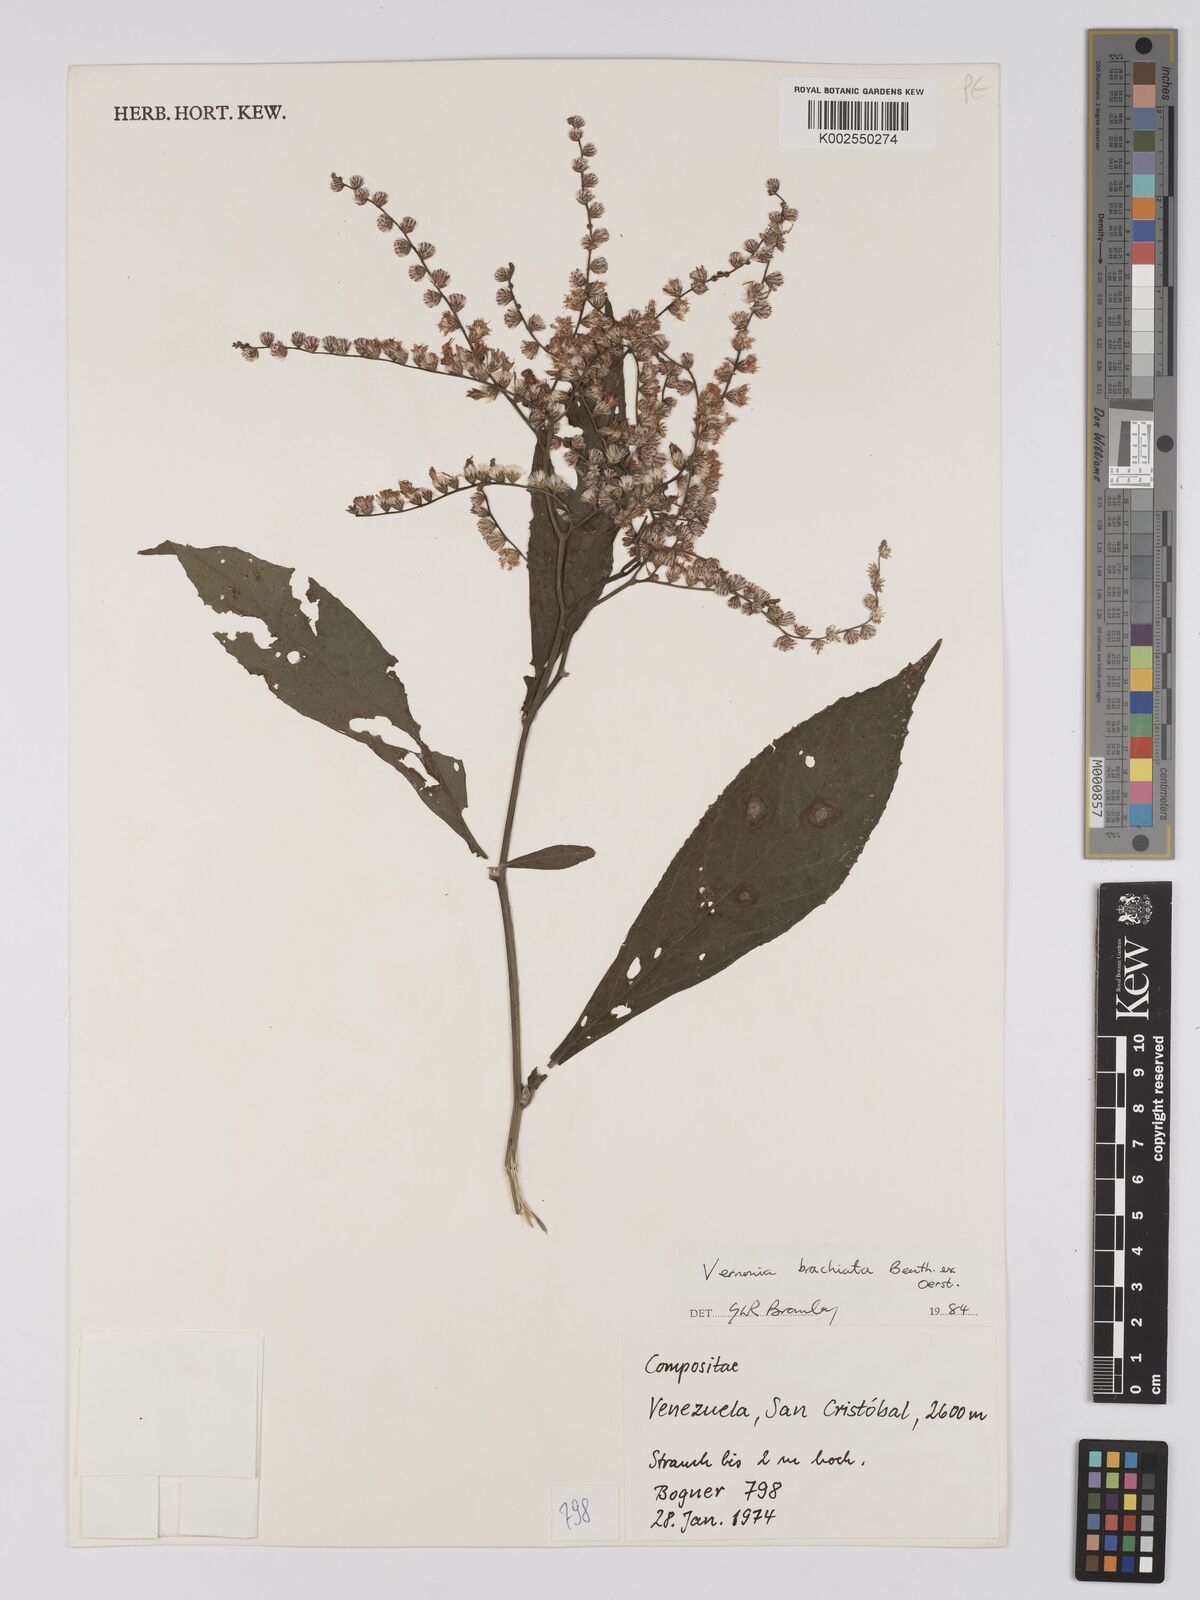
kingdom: Plantae
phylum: Tracheophyta
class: Magnoliopsida
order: Asterales
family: Asteraceae
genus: Eirmocephala
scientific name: Eirmocephala brachiata
